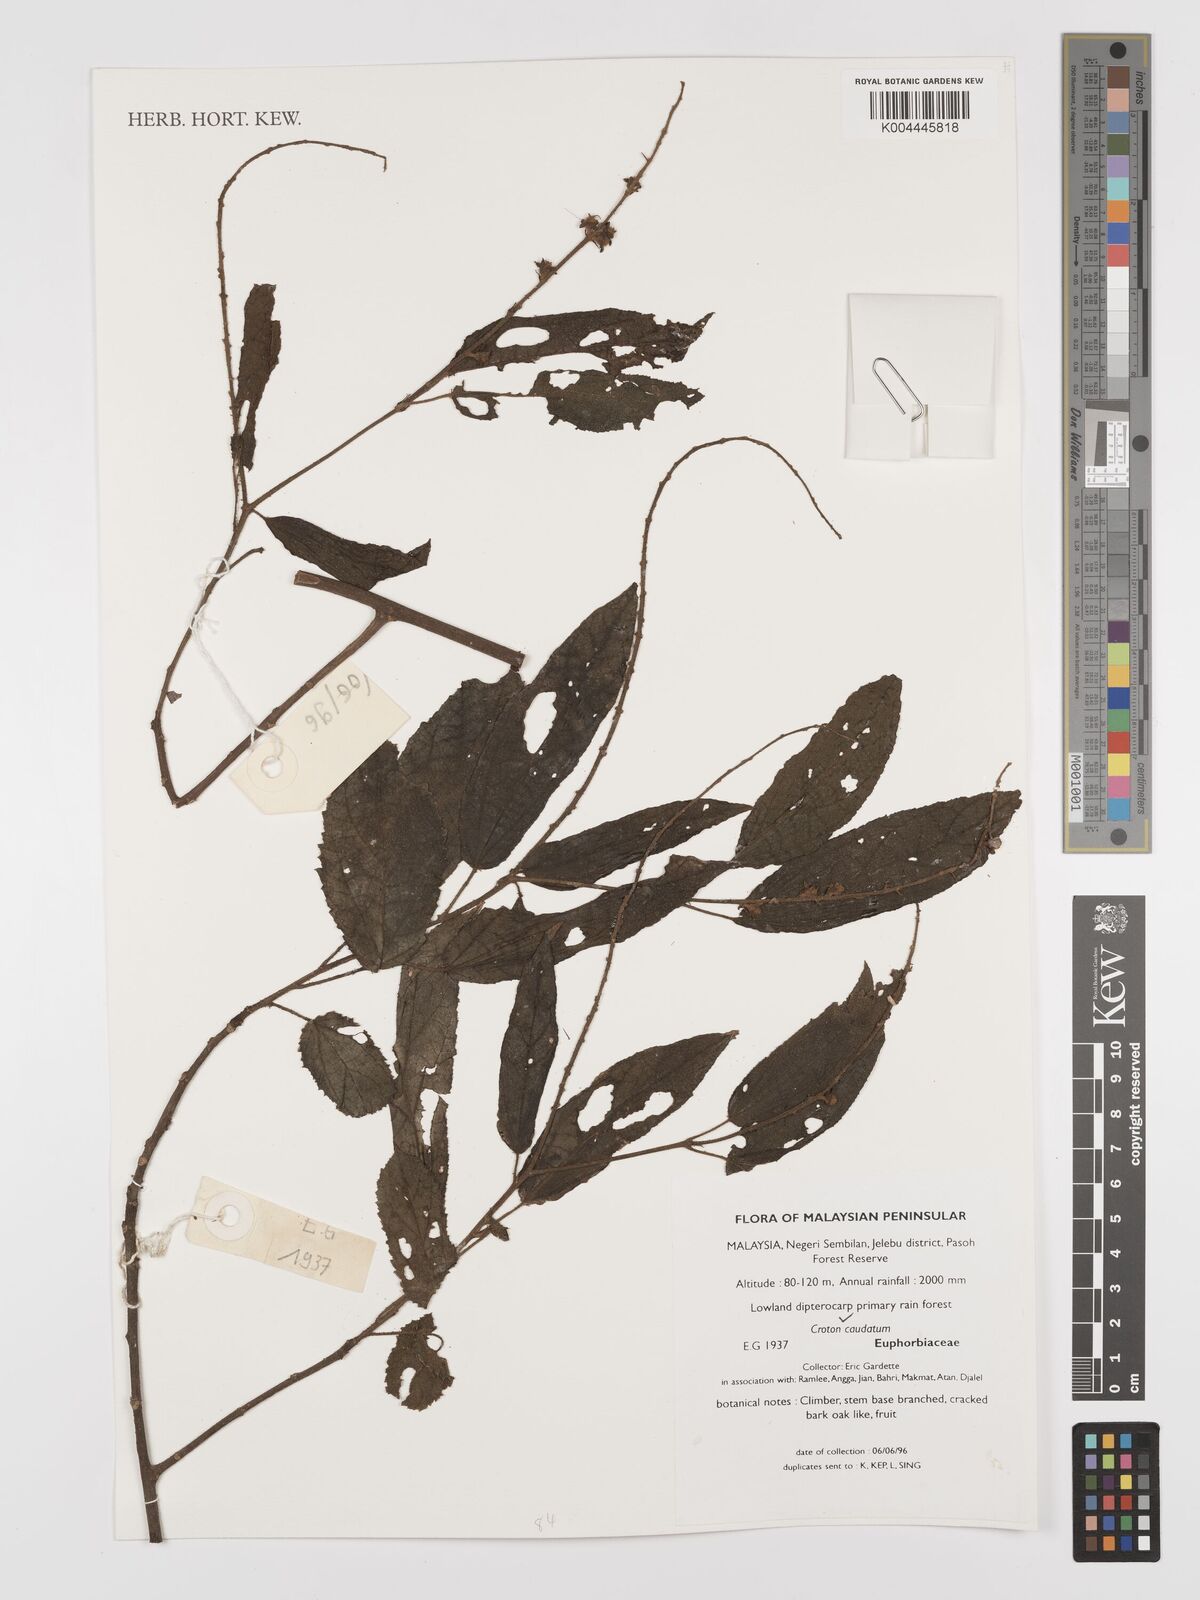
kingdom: Plantae
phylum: Tracheophyta
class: Magnoliopsida
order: Malpighiales
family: Euphorbiaceae
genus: Croton
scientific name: Croton caudatus
